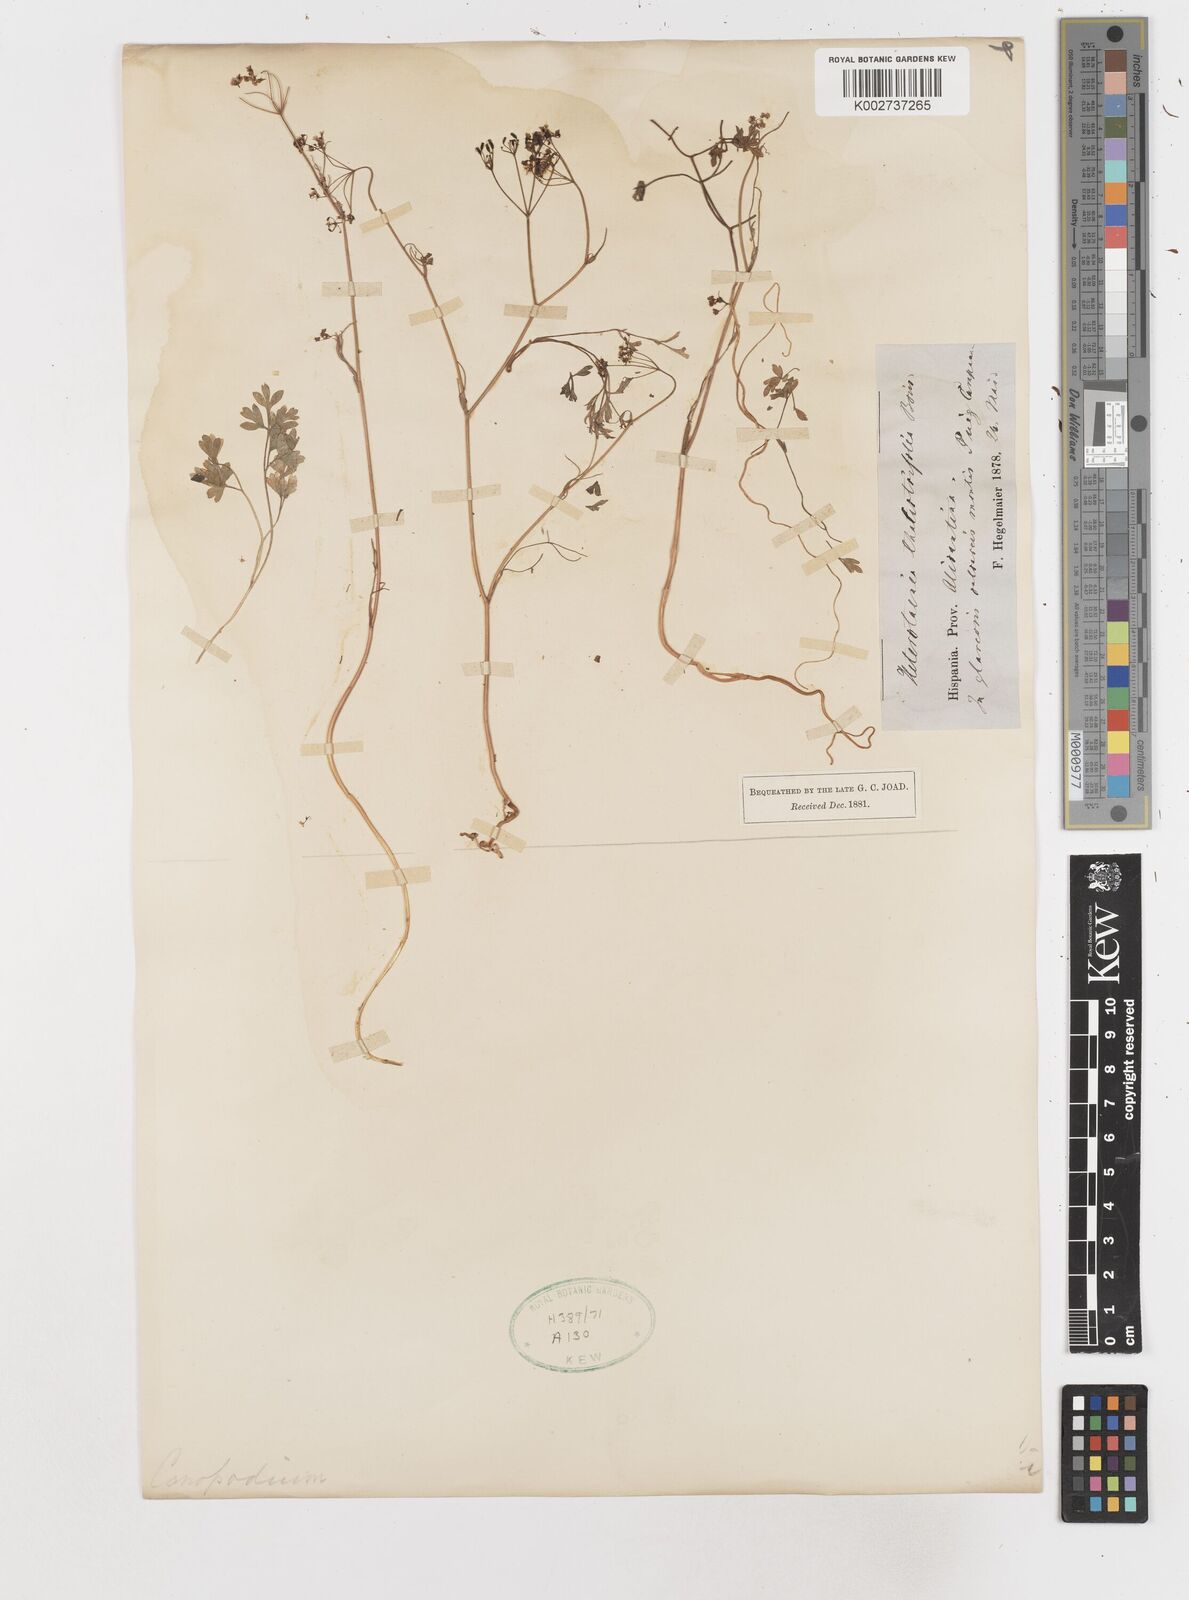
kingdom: Plantae
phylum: Tracheophyta
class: Magnoliopsida
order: Apiales
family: Apiaceae
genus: Conopodium
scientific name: Conopodium thalictrifolium
